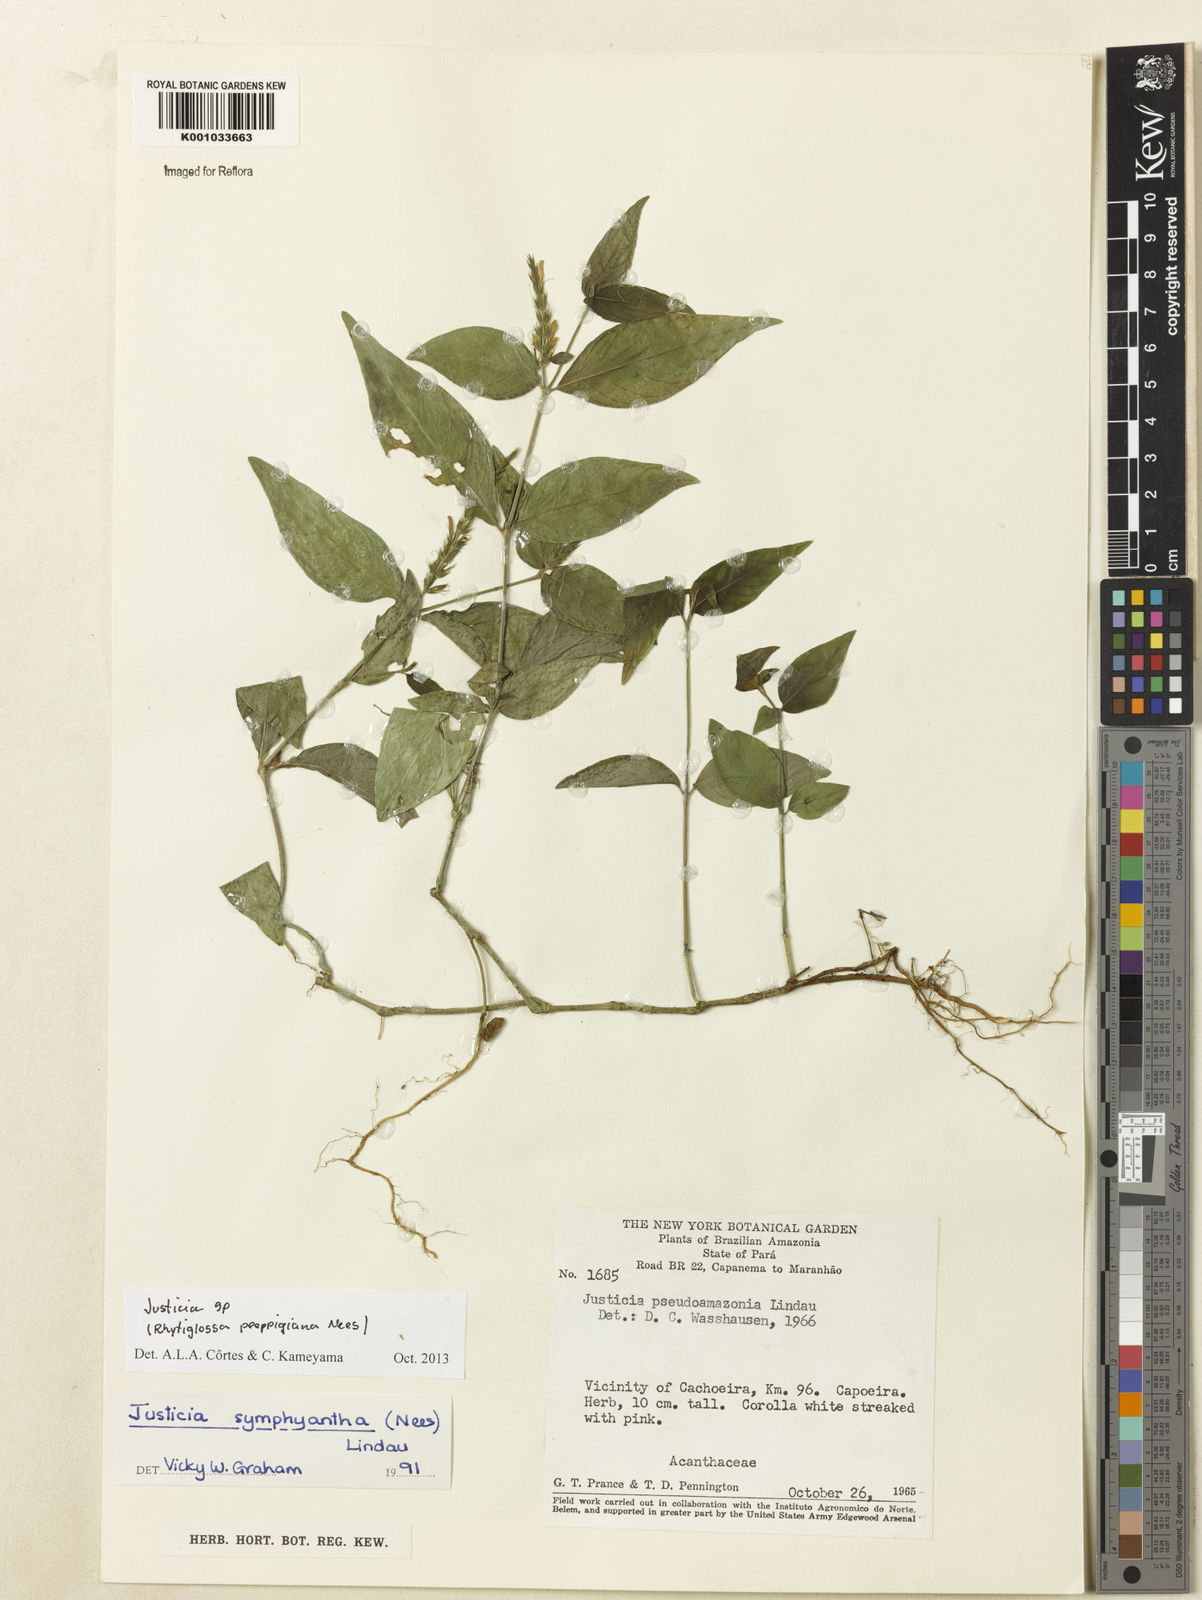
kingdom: Plantae
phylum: Tracheophyta
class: Magnoliopsida
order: Lamiales
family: Acanthaceae
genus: Justicia
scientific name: Justicia
